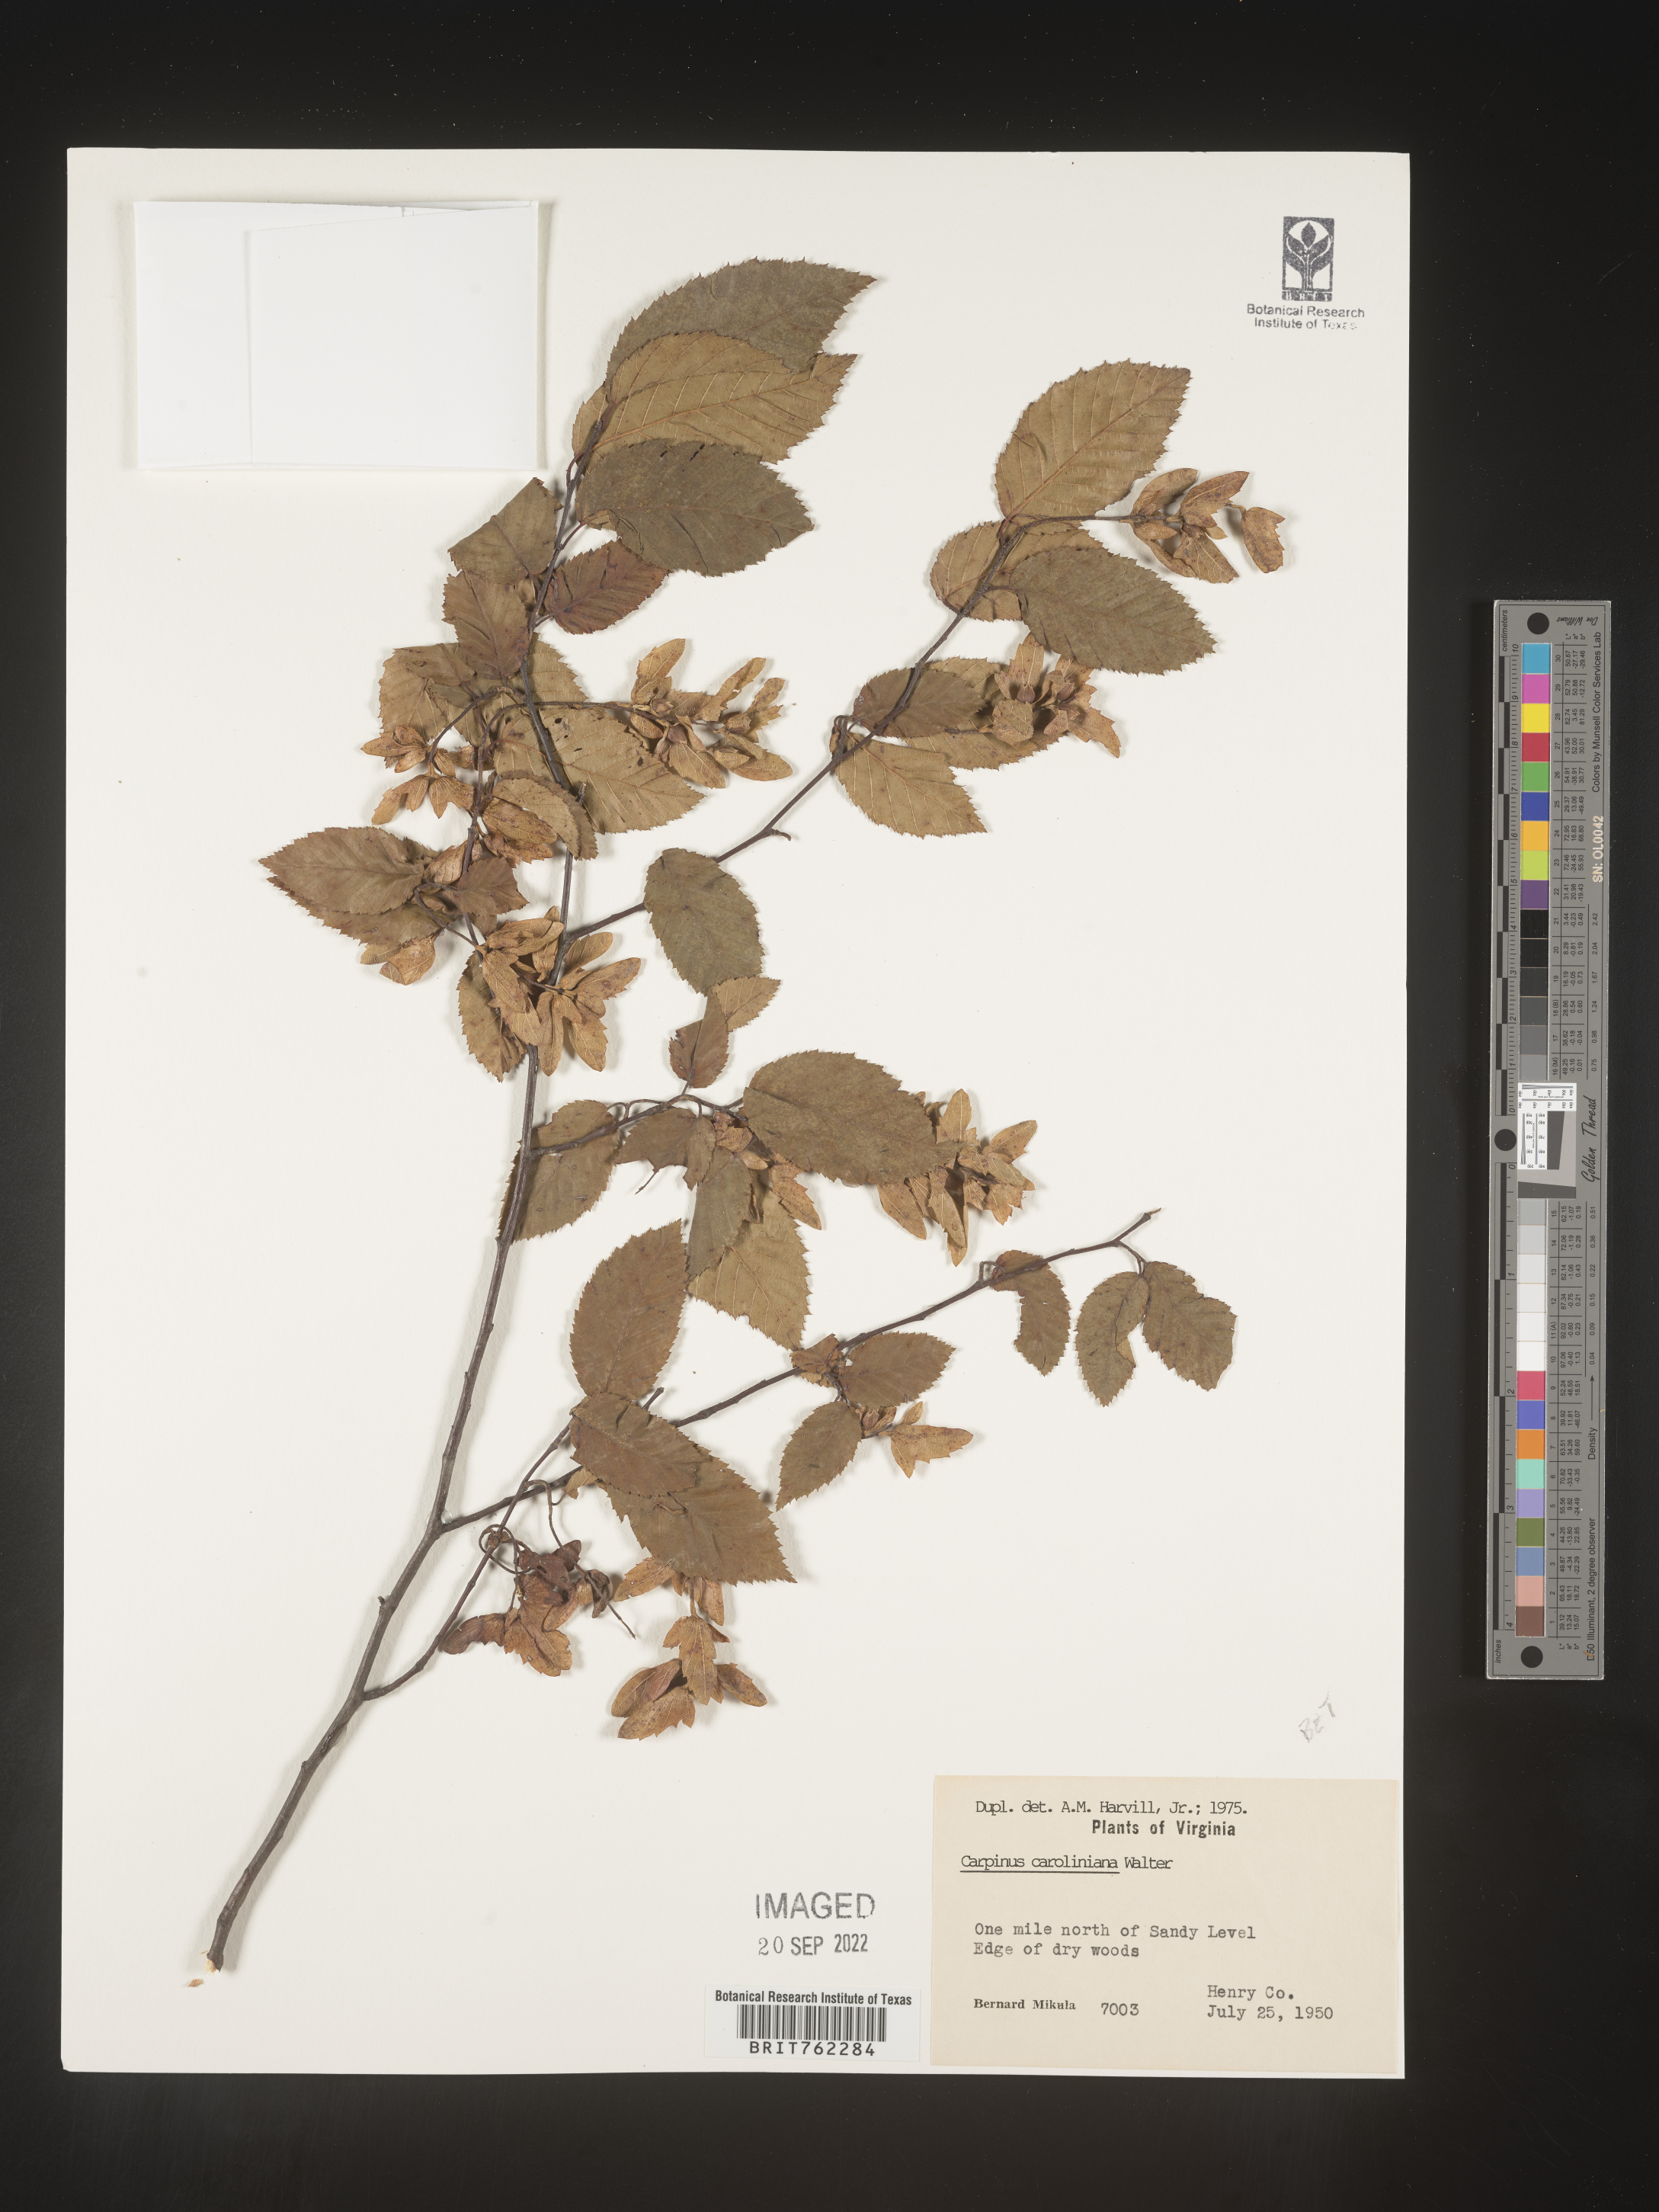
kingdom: Plantae
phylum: Tracheophyta
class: Magnoliopsida
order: Fagales
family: Betulaceae
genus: Carpinus
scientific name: Carpinus caroliniana
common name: American hornbeam
